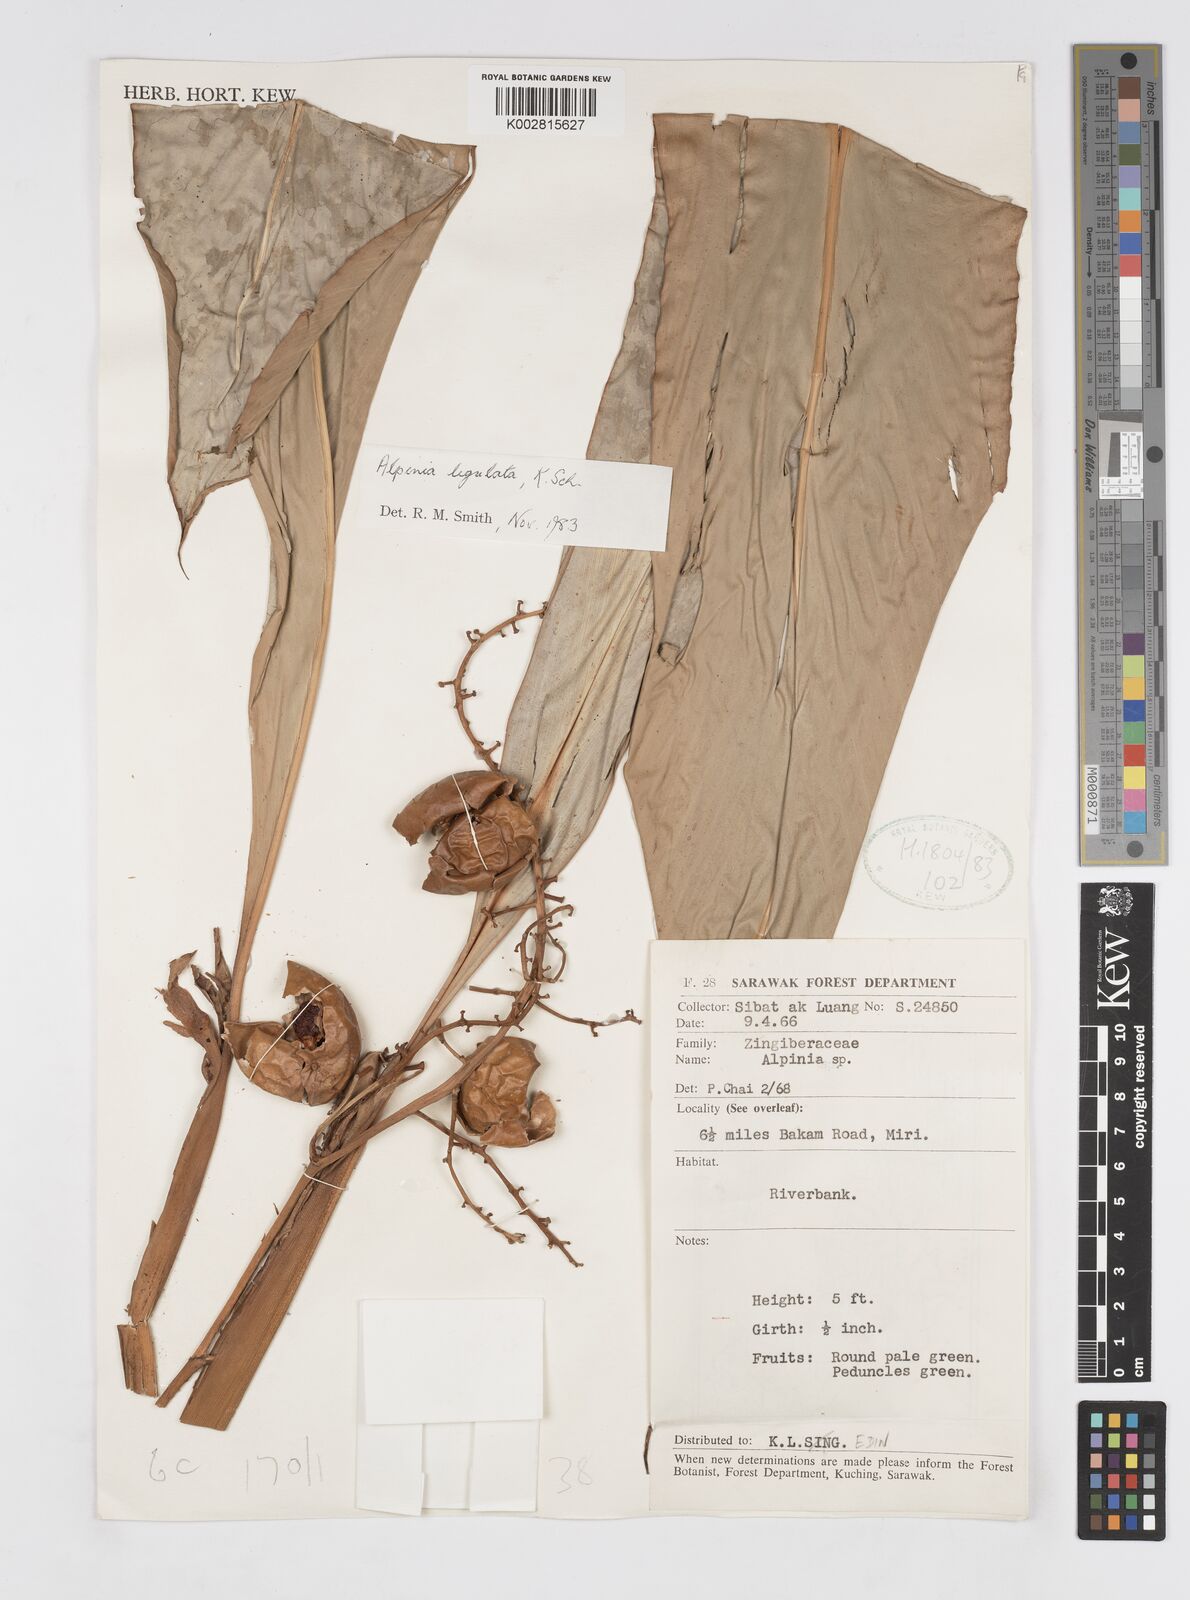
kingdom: Plantae
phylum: Tracheophyta
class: Liliopsida
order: Zingiberales
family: Zingiberaceae
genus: Alpinia
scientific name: Alpinia ligulata
